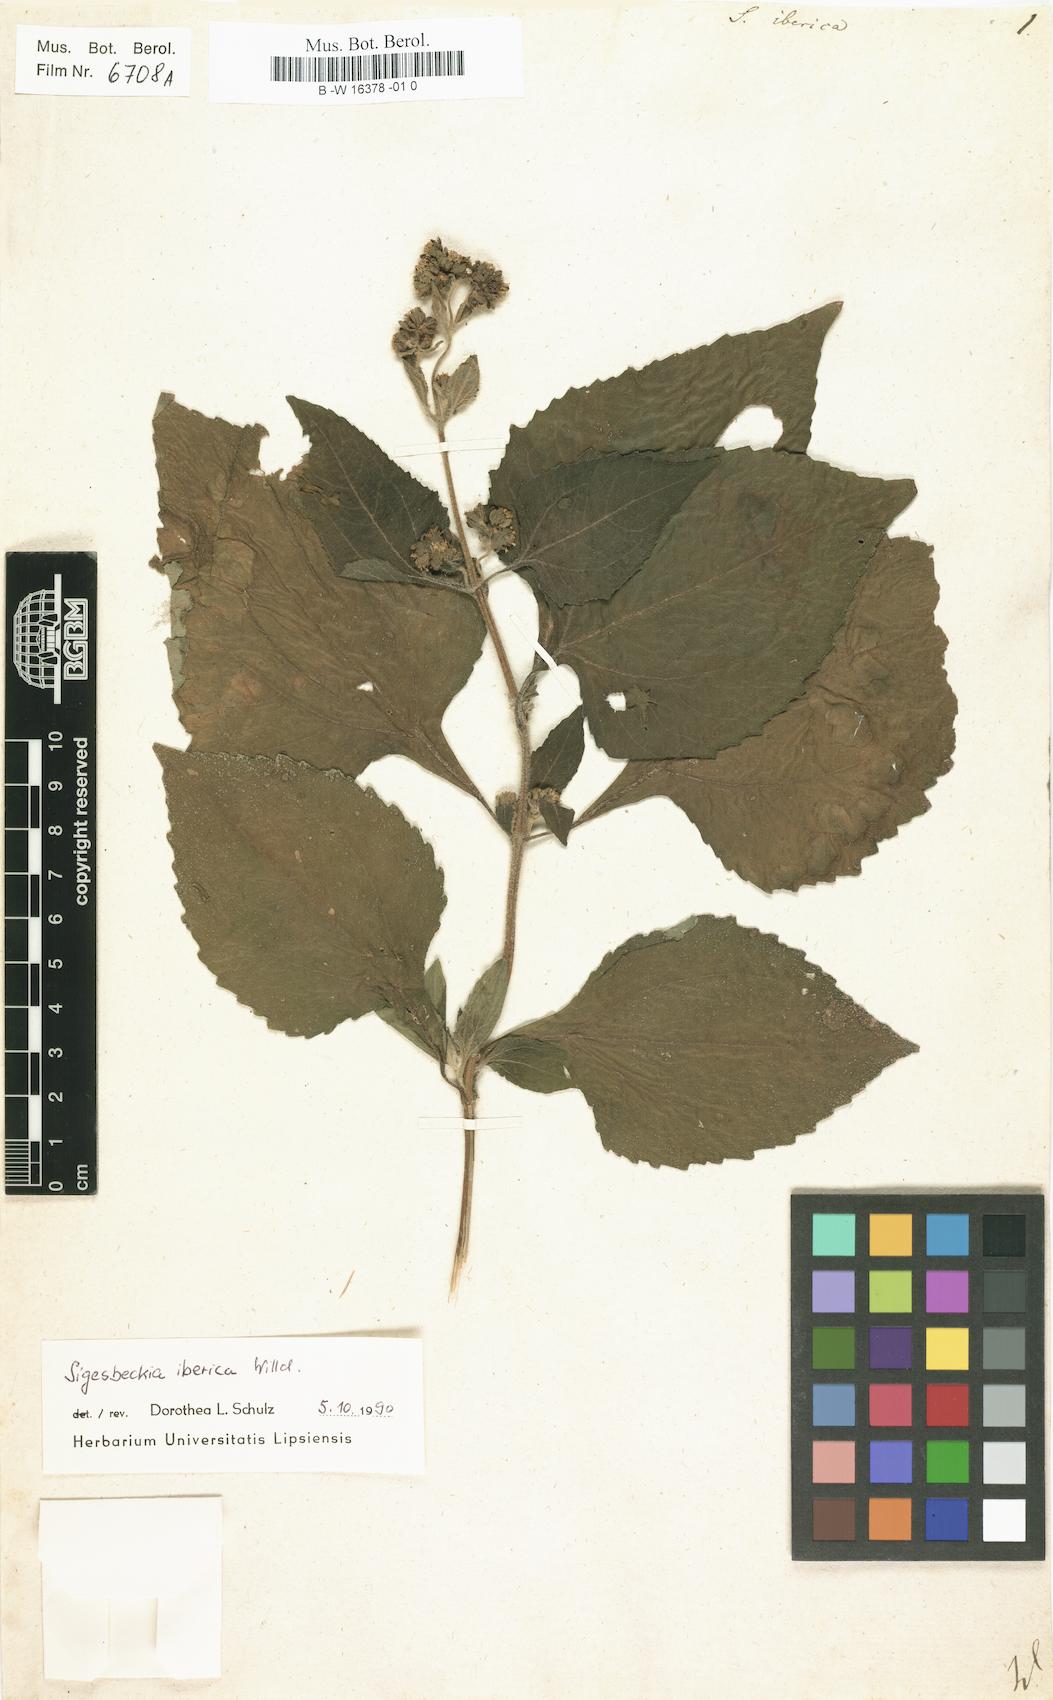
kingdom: Plantae
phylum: Tracheophyta
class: Magnoliopsida
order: Asterales
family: Asteraceae
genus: Siegesbeckia
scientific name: Siegesbeckia
